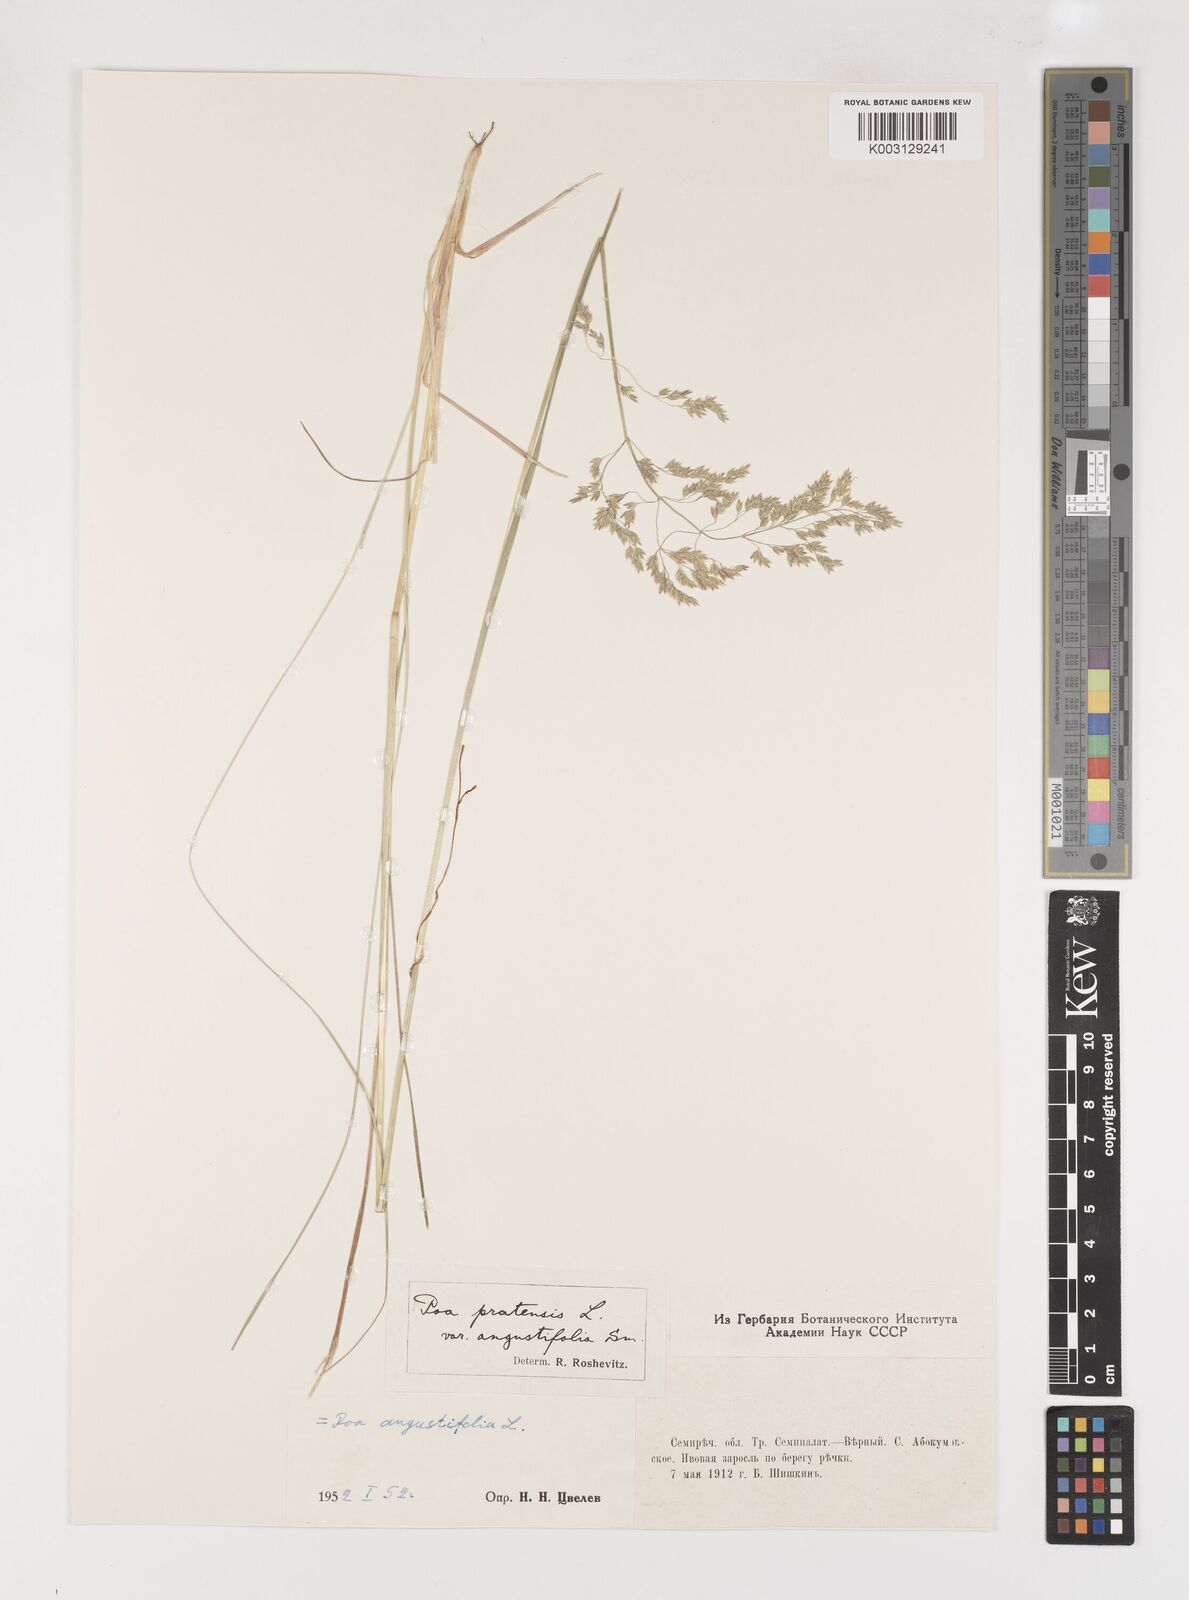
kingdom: Plantae
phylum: Tracheophyta
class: Liliopsida
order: Poales
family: Poaceae
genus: Poa
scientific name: Poa angustifolia
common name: Narrow-leaved meadow-grass
